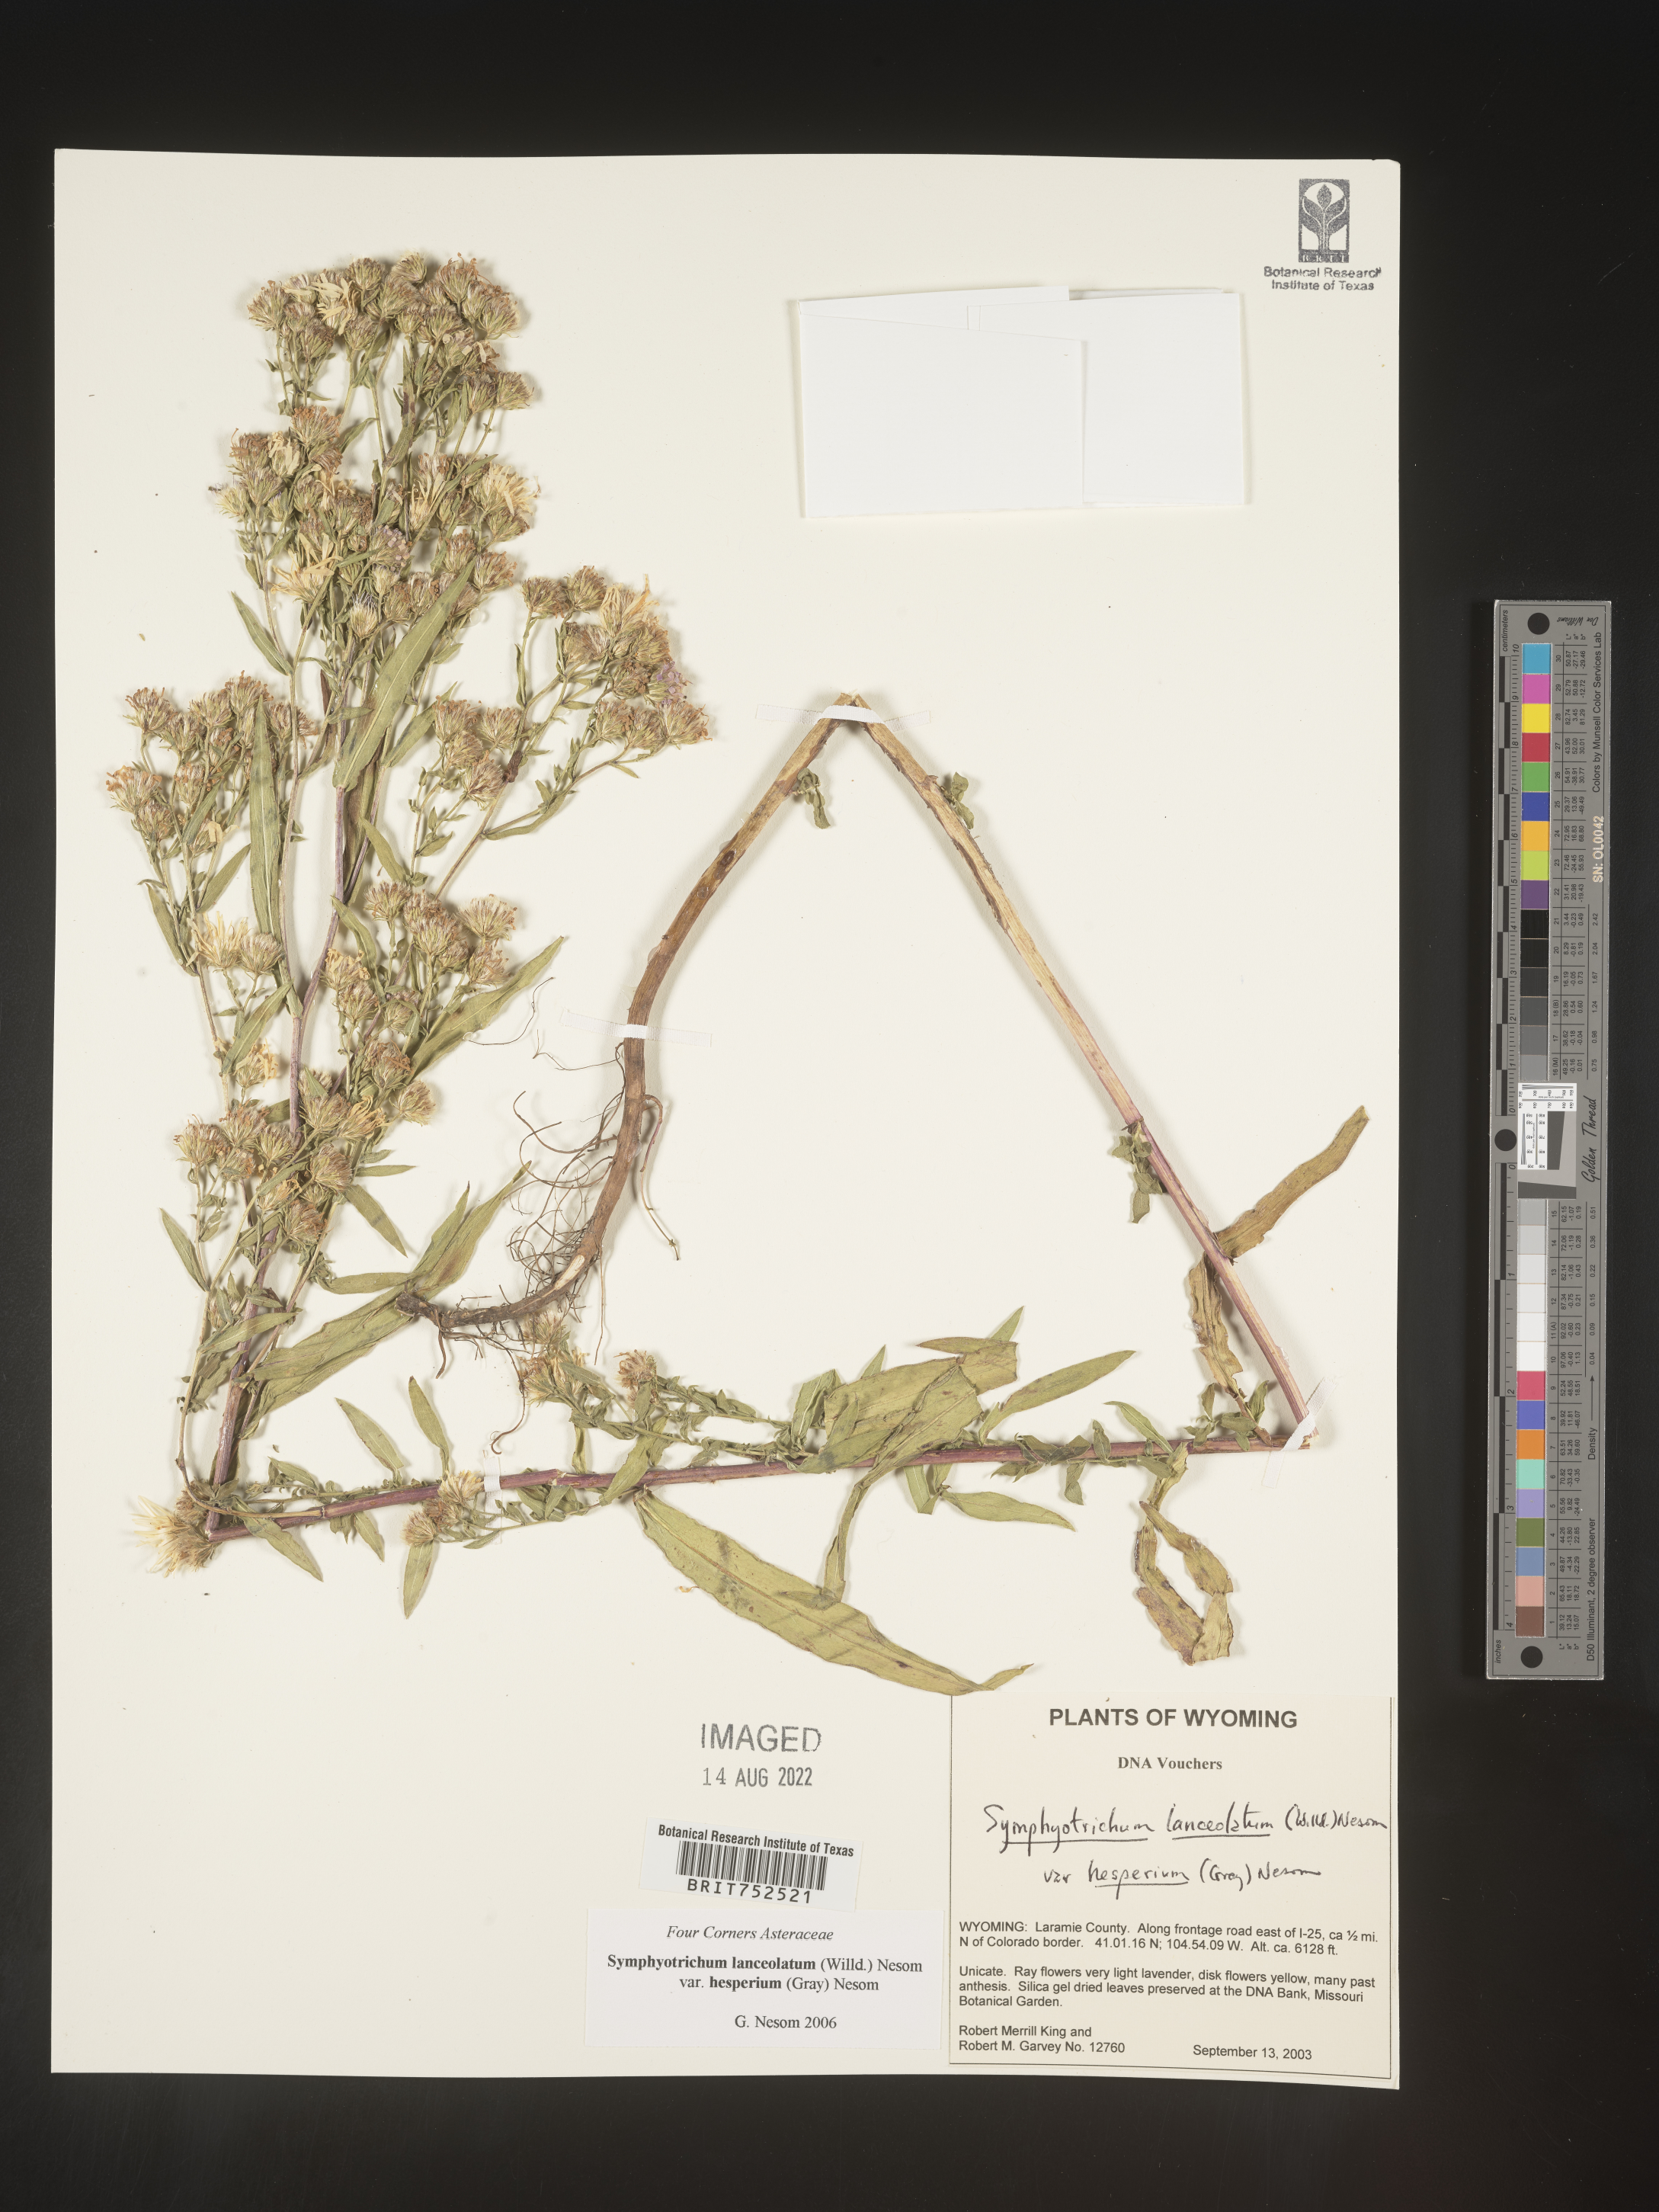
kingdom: Plantae
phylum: Tracheophyta
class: Magnoliopsida
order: Asterales
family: Asteraceae
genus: Symphyotrichum
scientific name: Symphyotrichum lanceolatum
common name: Panicled aster
